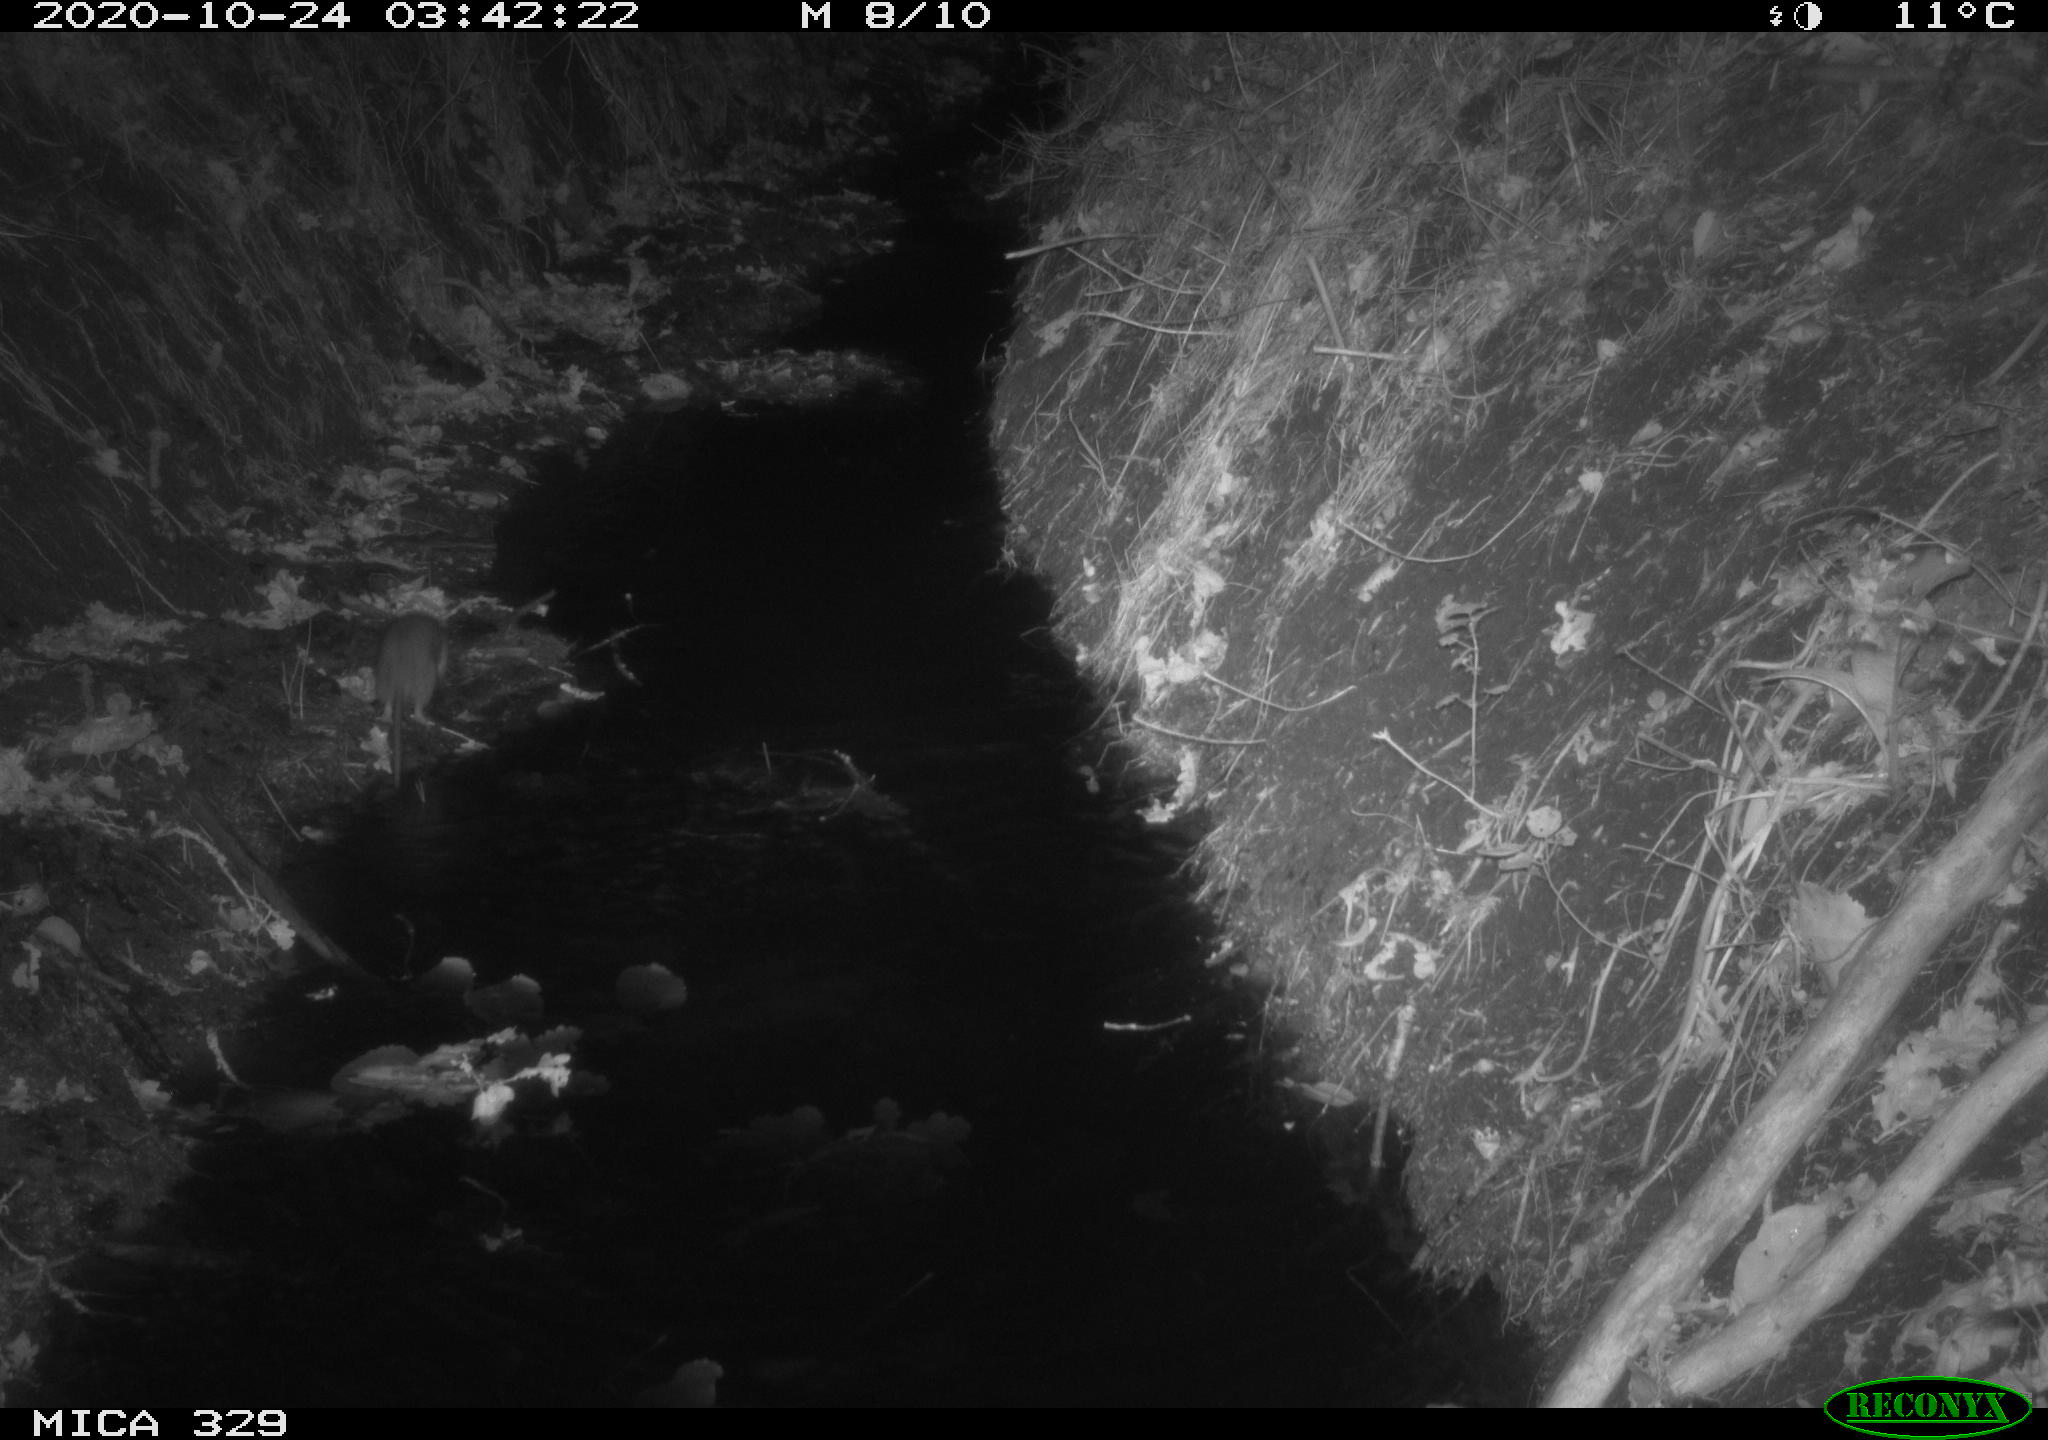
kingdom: Animalia
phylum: Chordata
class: Mammalia
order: Rodentia
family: Muridae
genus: Rattus
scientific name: Rattus norvegicus
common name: Brown rat
